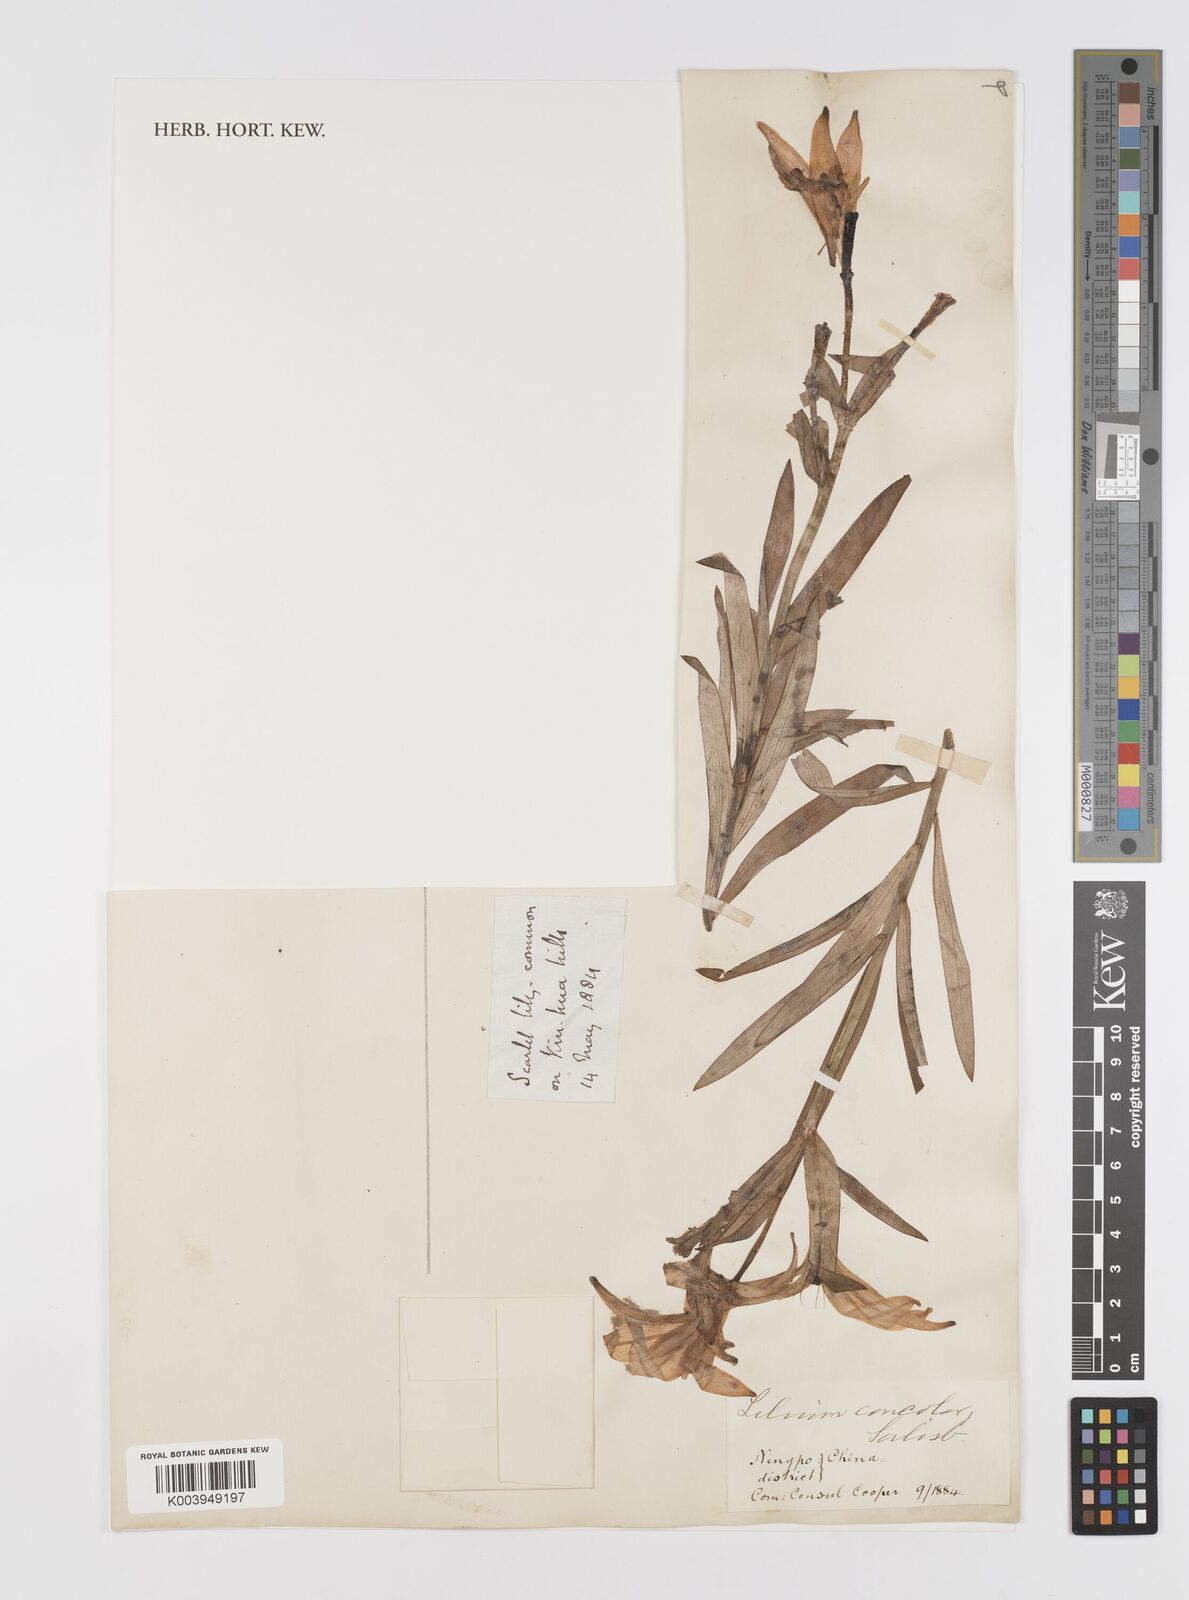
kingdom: Plantae
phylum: Tracheophyta
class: Liliopsida
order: Liliales
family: Liliaceae
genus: Lilium
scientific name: Lilium concolor
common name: Morning-star lily
